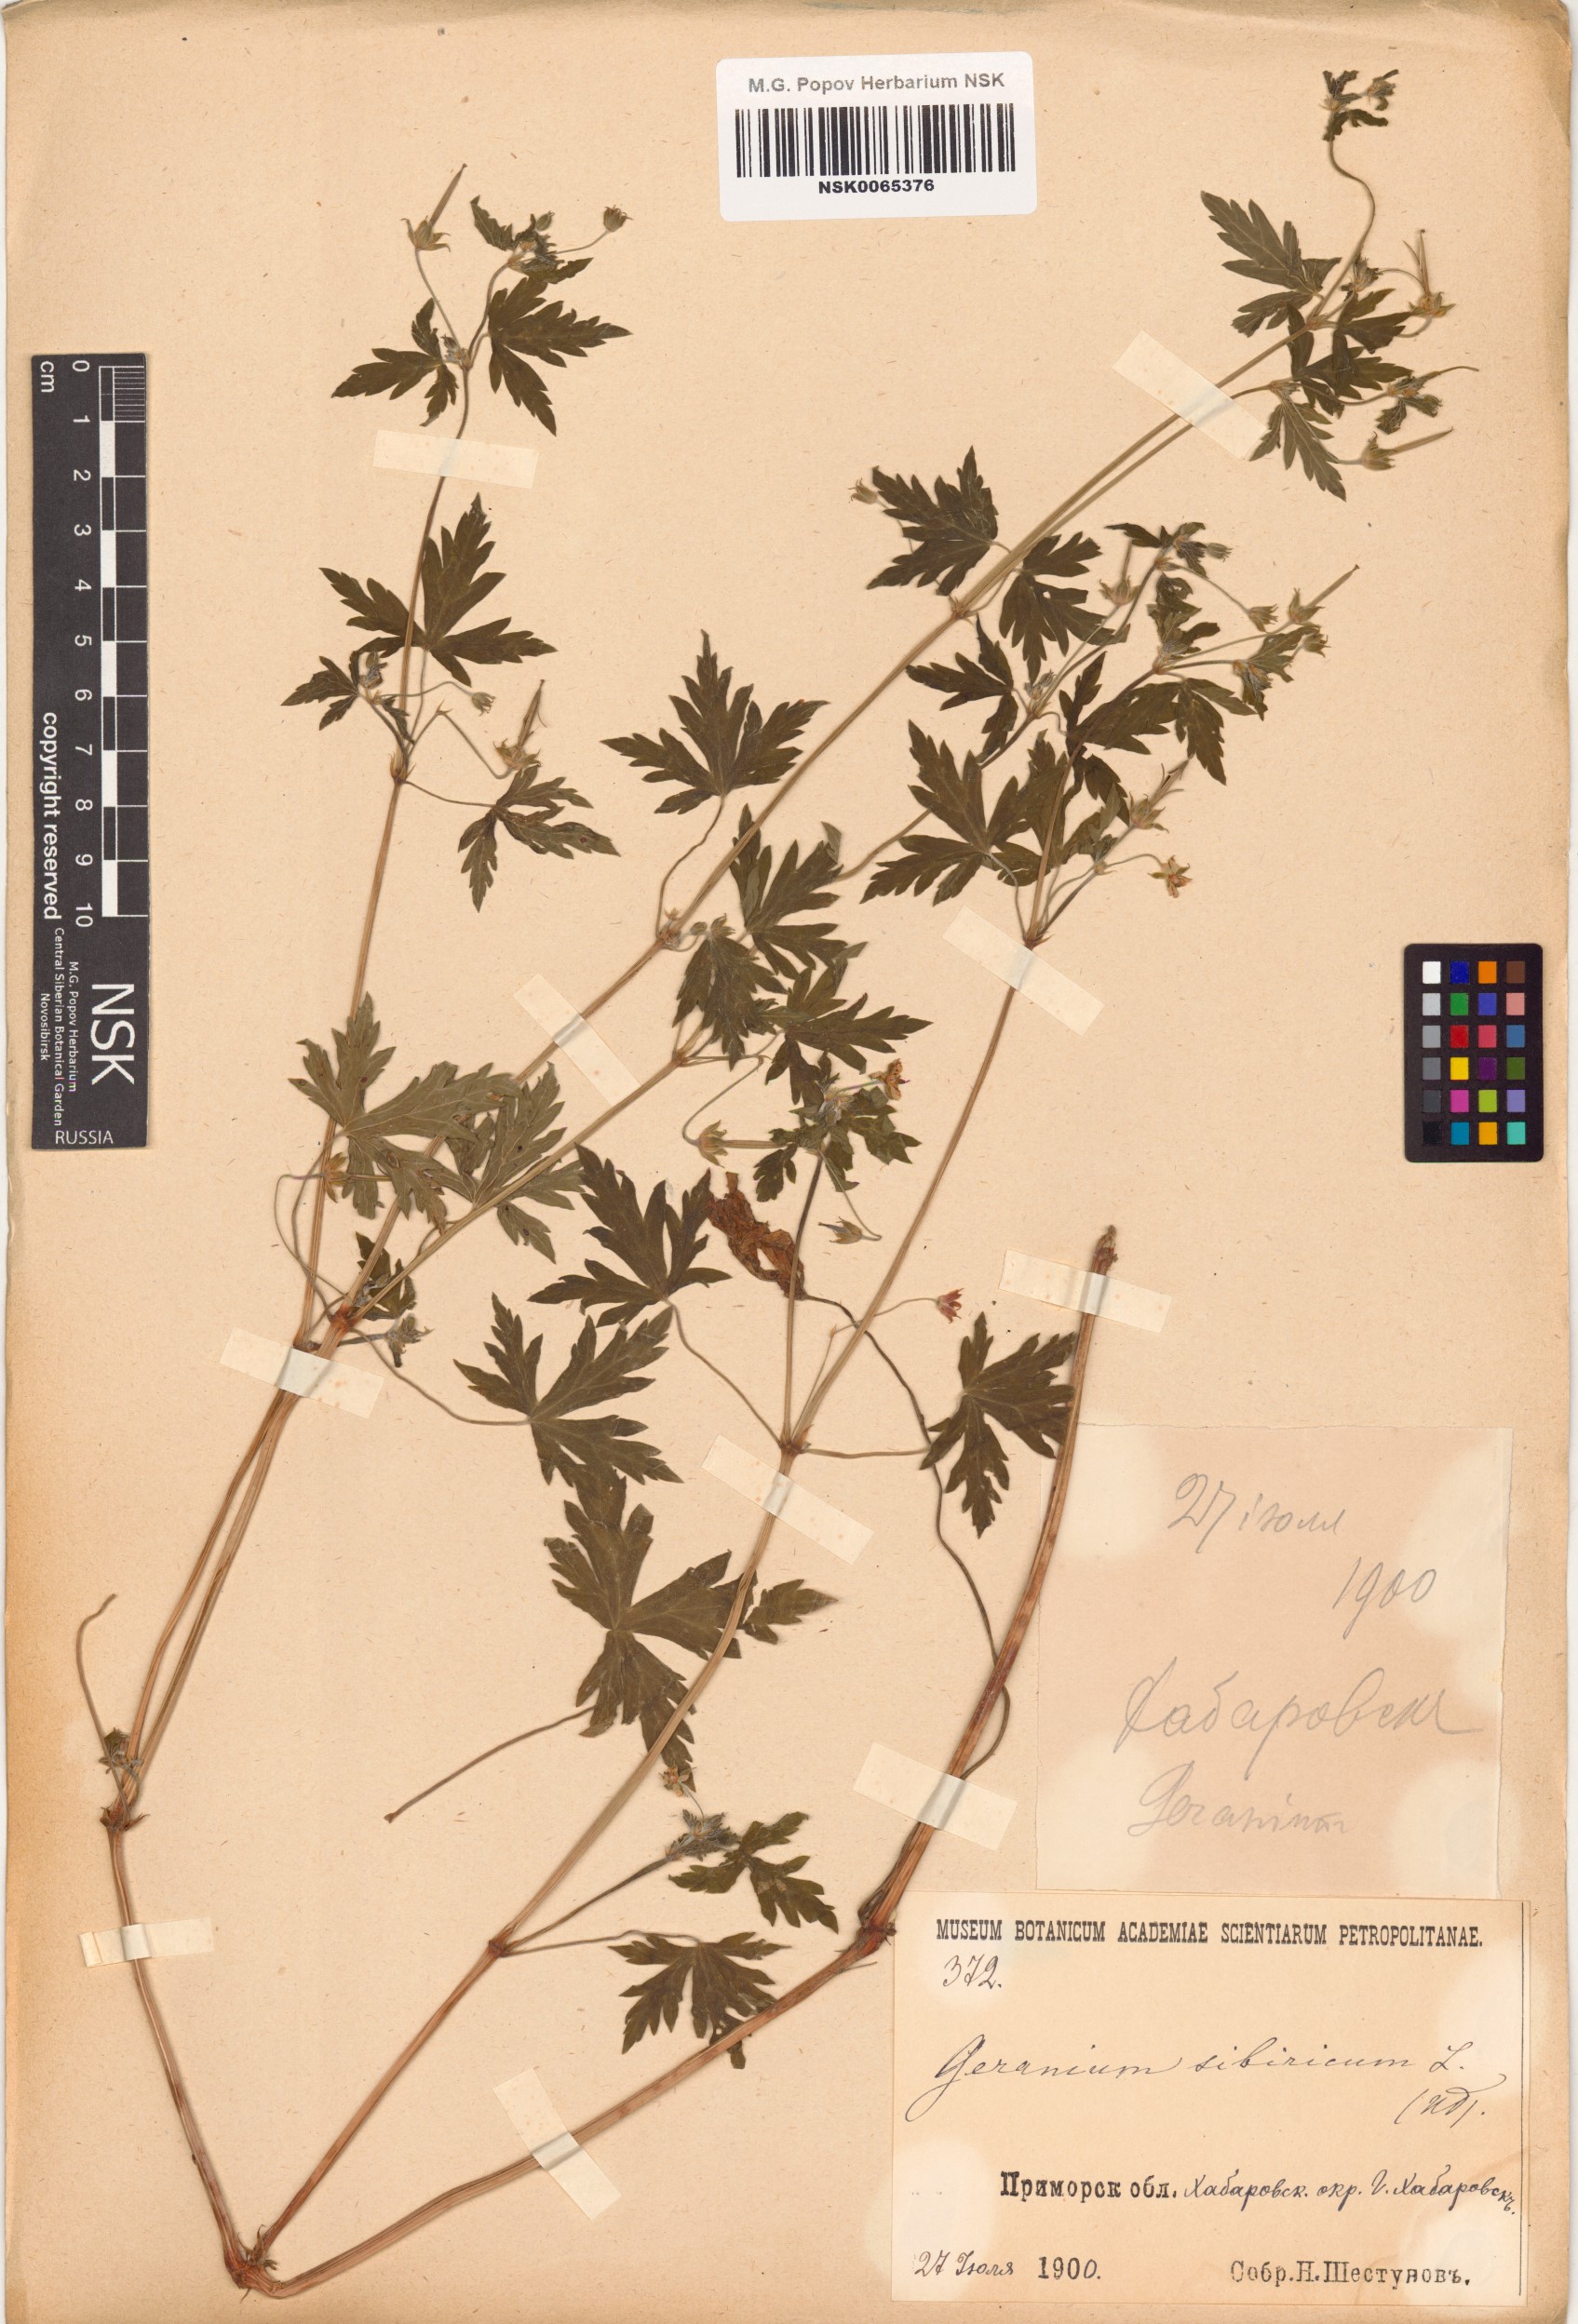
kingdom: Plantae
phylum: Tracheophyta
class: Magnoliopsida
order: Geraniales
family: Geraniaceae
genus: Geranium
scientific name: Geranium sibiricum
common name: Siberian crane's-bill
